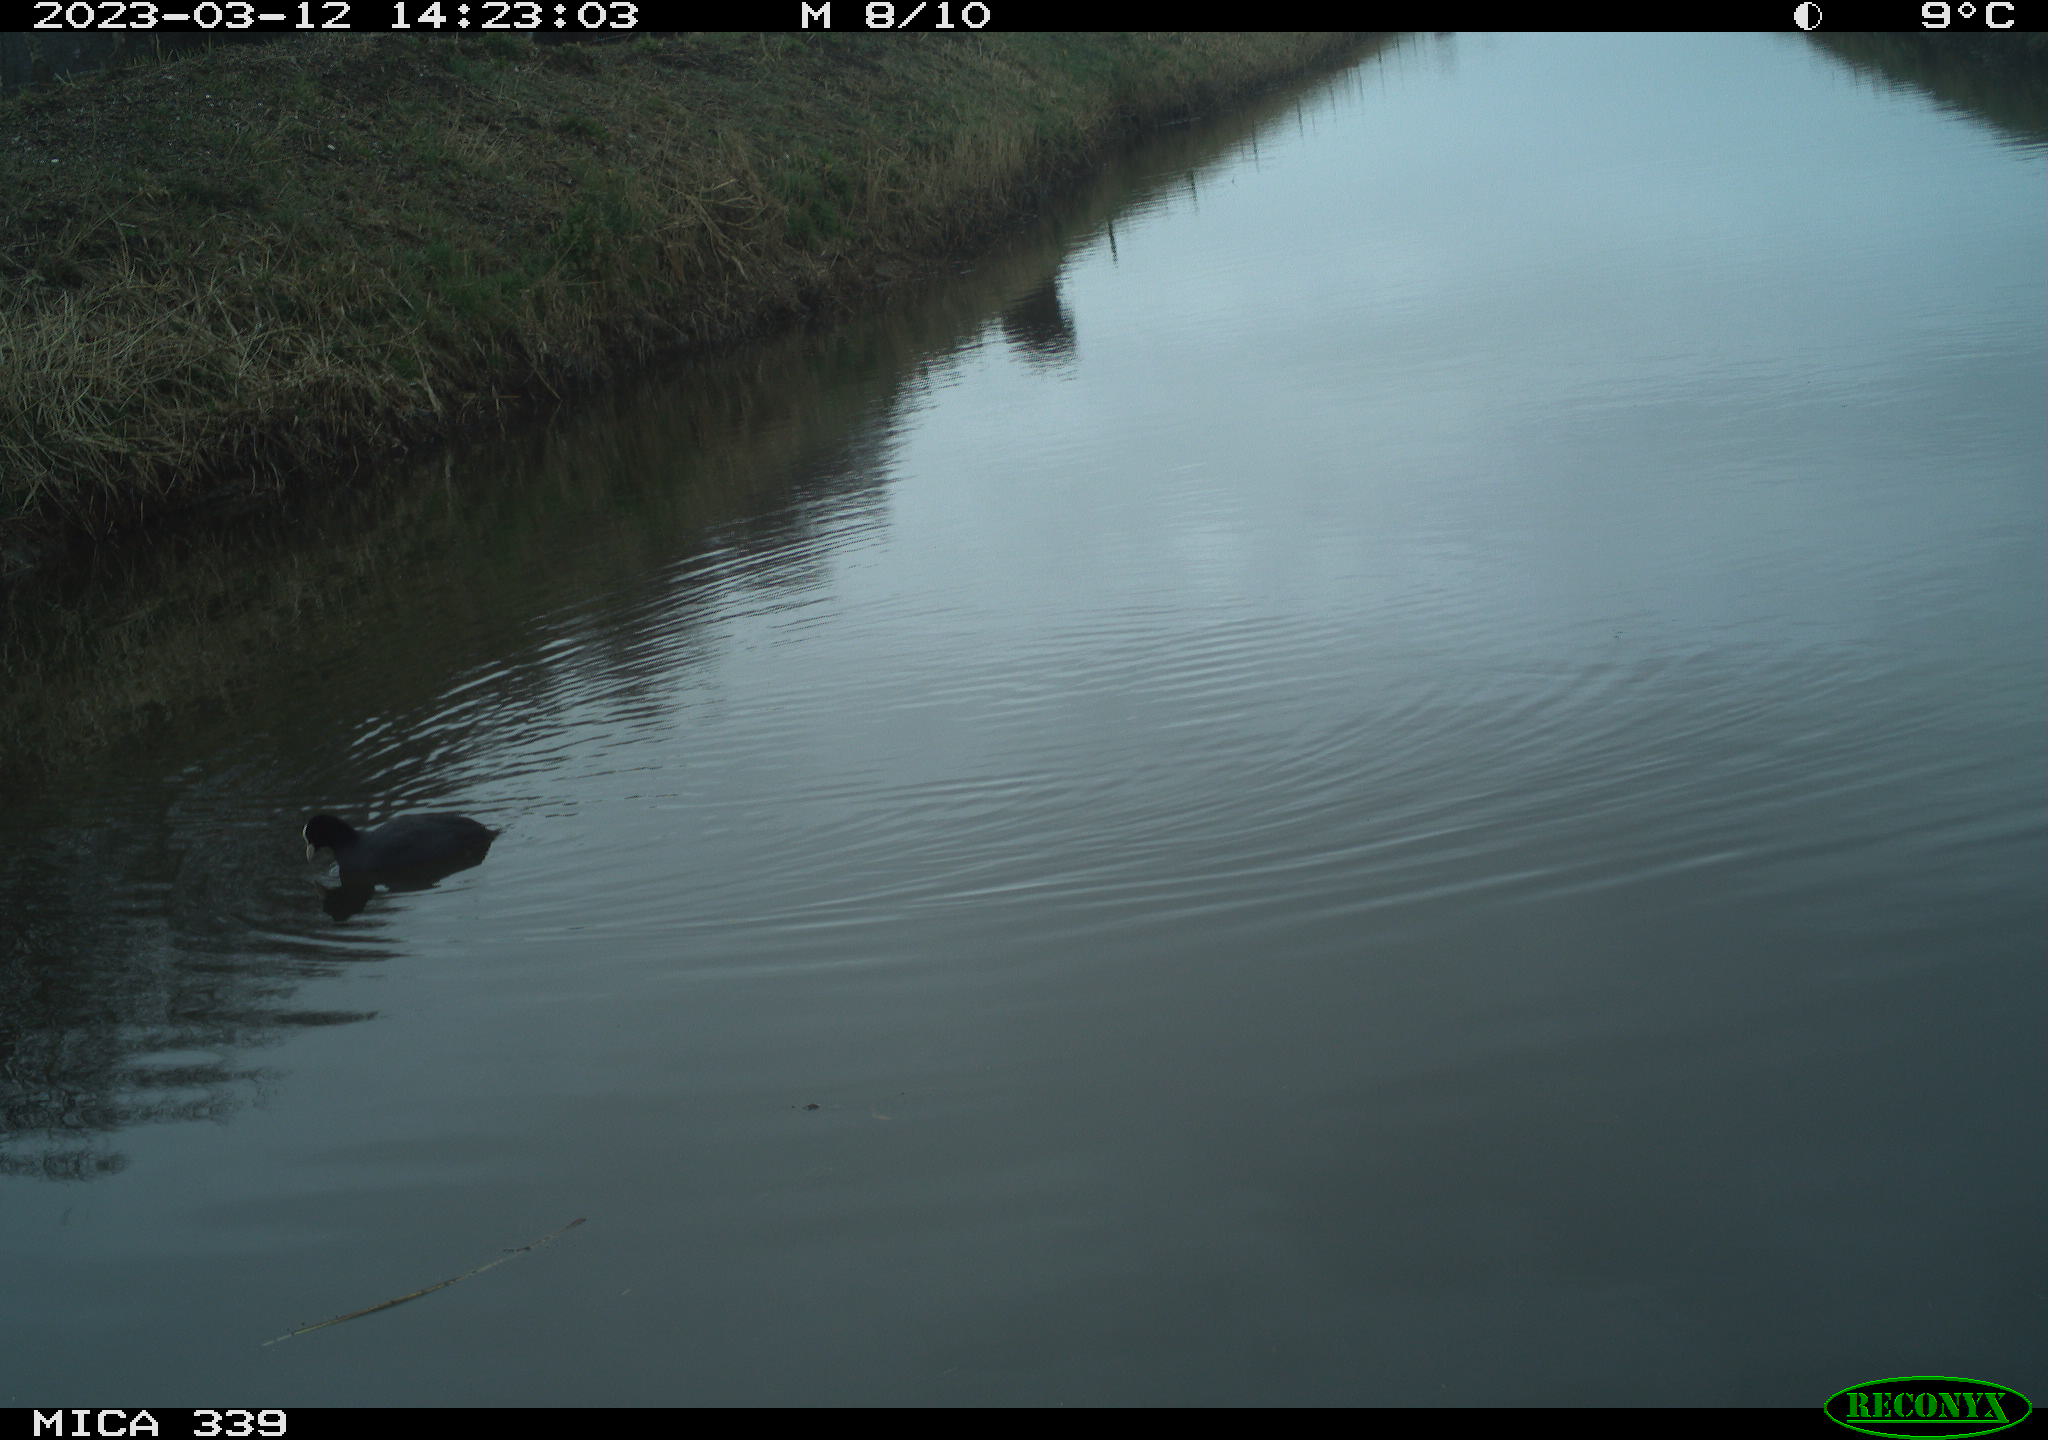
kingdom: Animalia
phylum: Chordata
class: Aves
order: Gruiformes
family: Rallidae
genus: Fulica
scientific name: Fulica atra
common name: Eurasian coot
